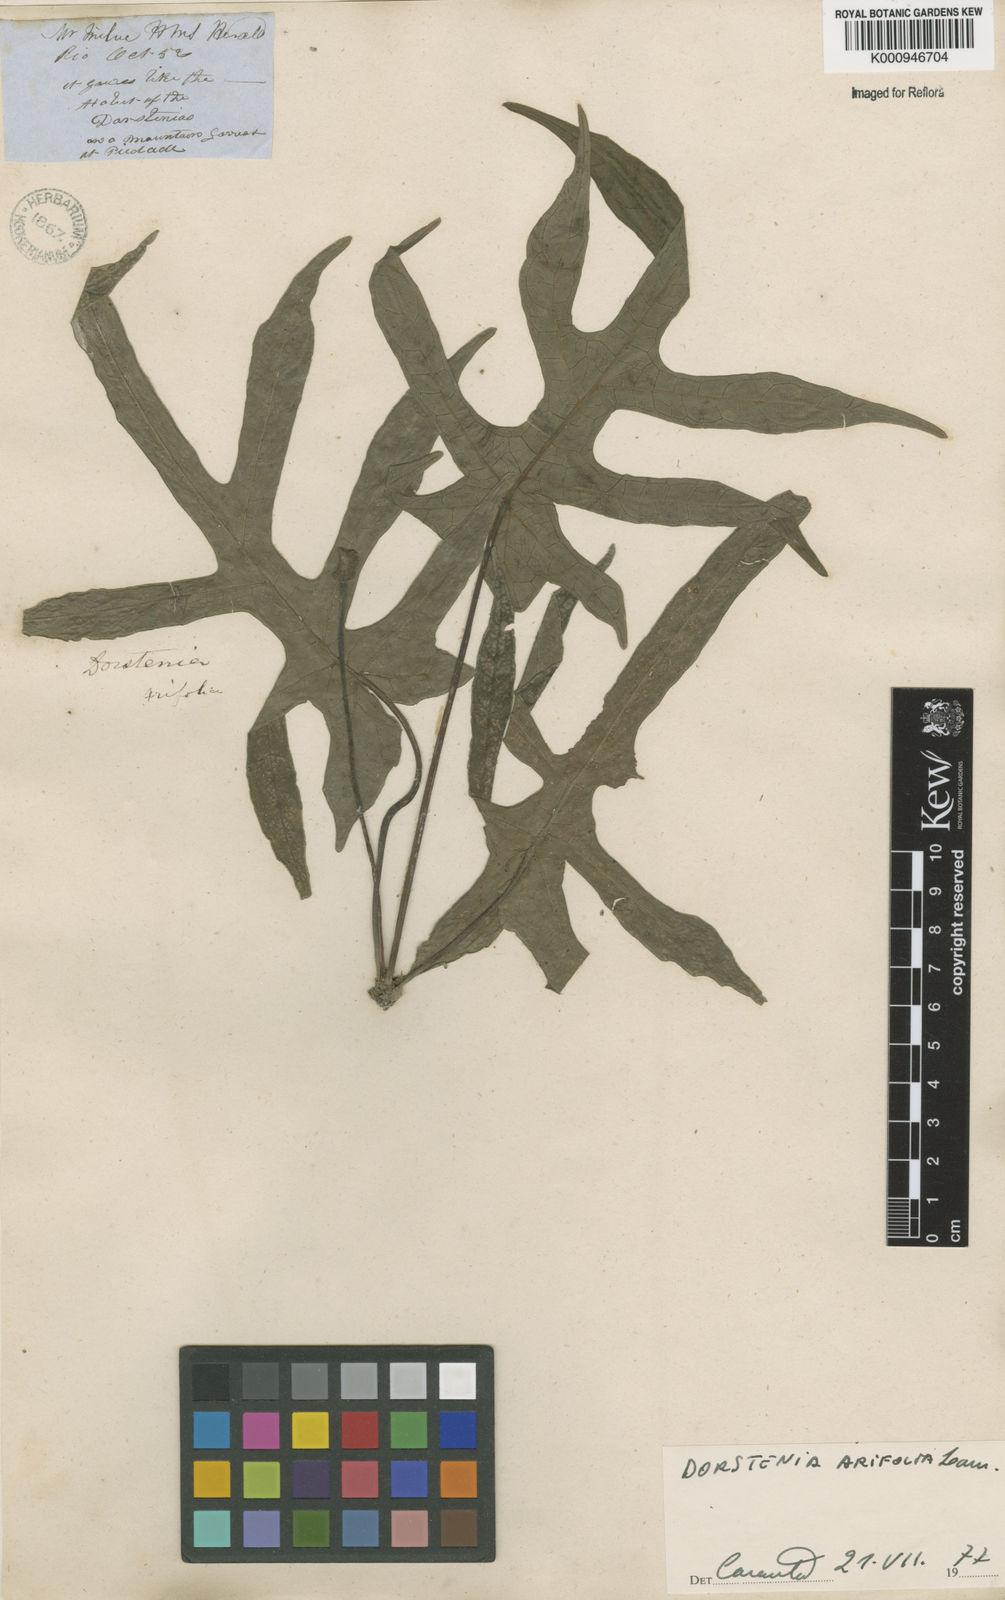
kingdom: Plantae
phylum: Tracheophyta
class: Magnoliopsida
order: Rosales
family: Moraceae
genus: Dorstenia
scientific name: Dorstenia arifolia
